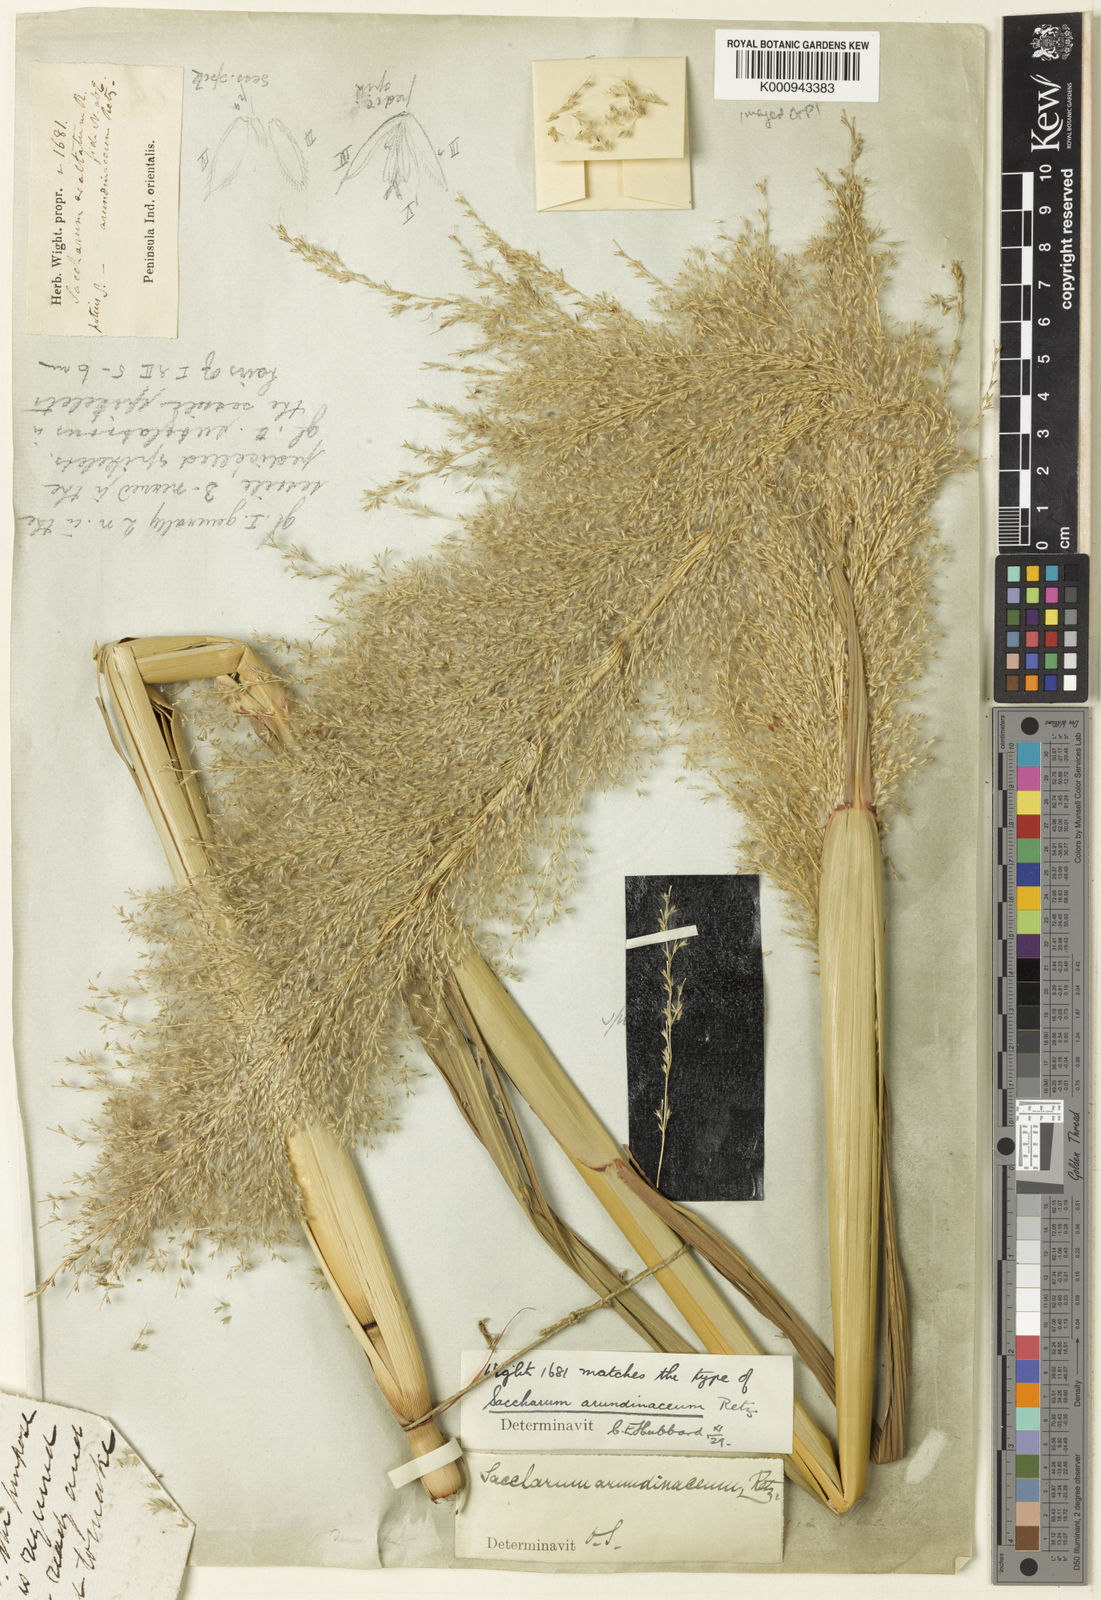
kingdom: Plantae
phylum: Tracheophyta
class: Liliopsida
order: Poales
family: Poaceae
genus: Tripidium
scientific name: Tripidium arundinaceum
